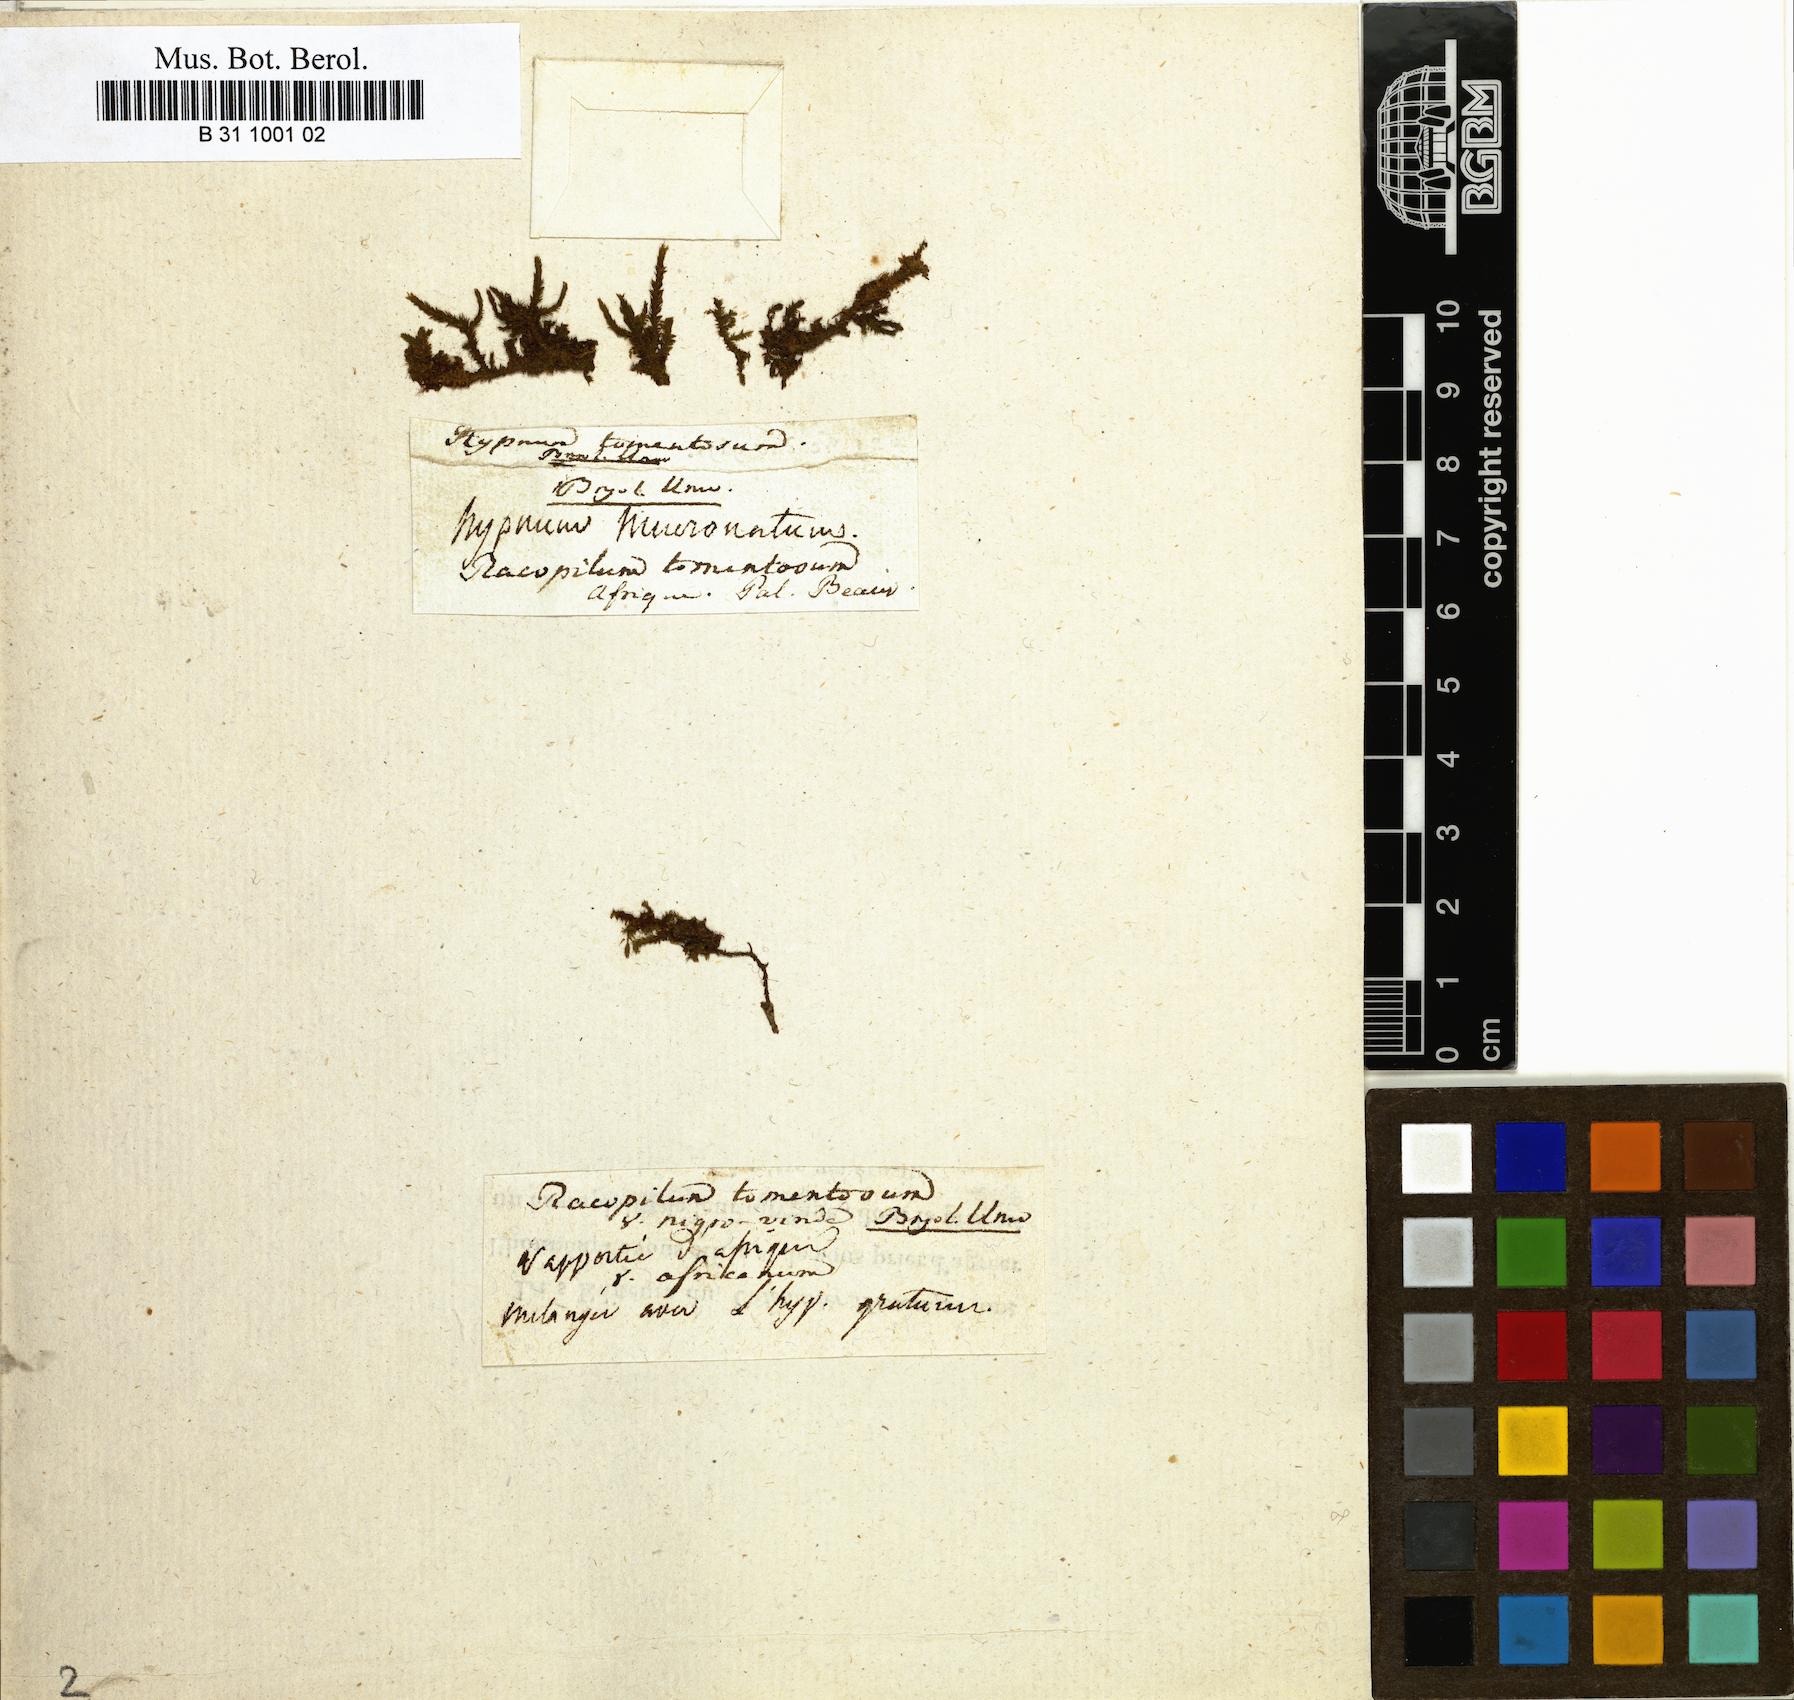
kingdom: Plantae
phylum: Bryophyta
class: Bryopsida
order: Hypnodendrales
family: Racopilaceae
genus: Racopilum
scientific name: Racopilum tomentosum
